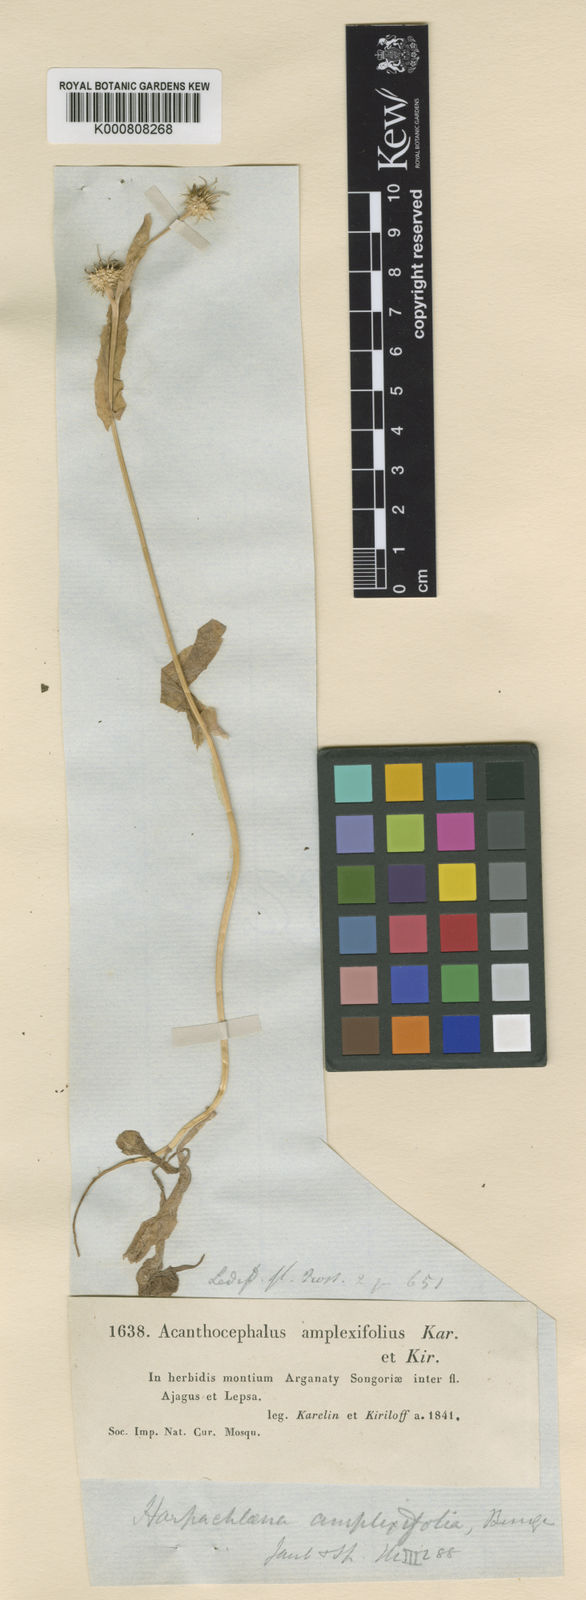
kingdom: Plantae
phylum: Tracheophyta
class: Magnoliopsida
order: Asterales
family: Asteraceae
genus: Acanthocephalus
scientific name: Acanthocephalus amplexifolius
